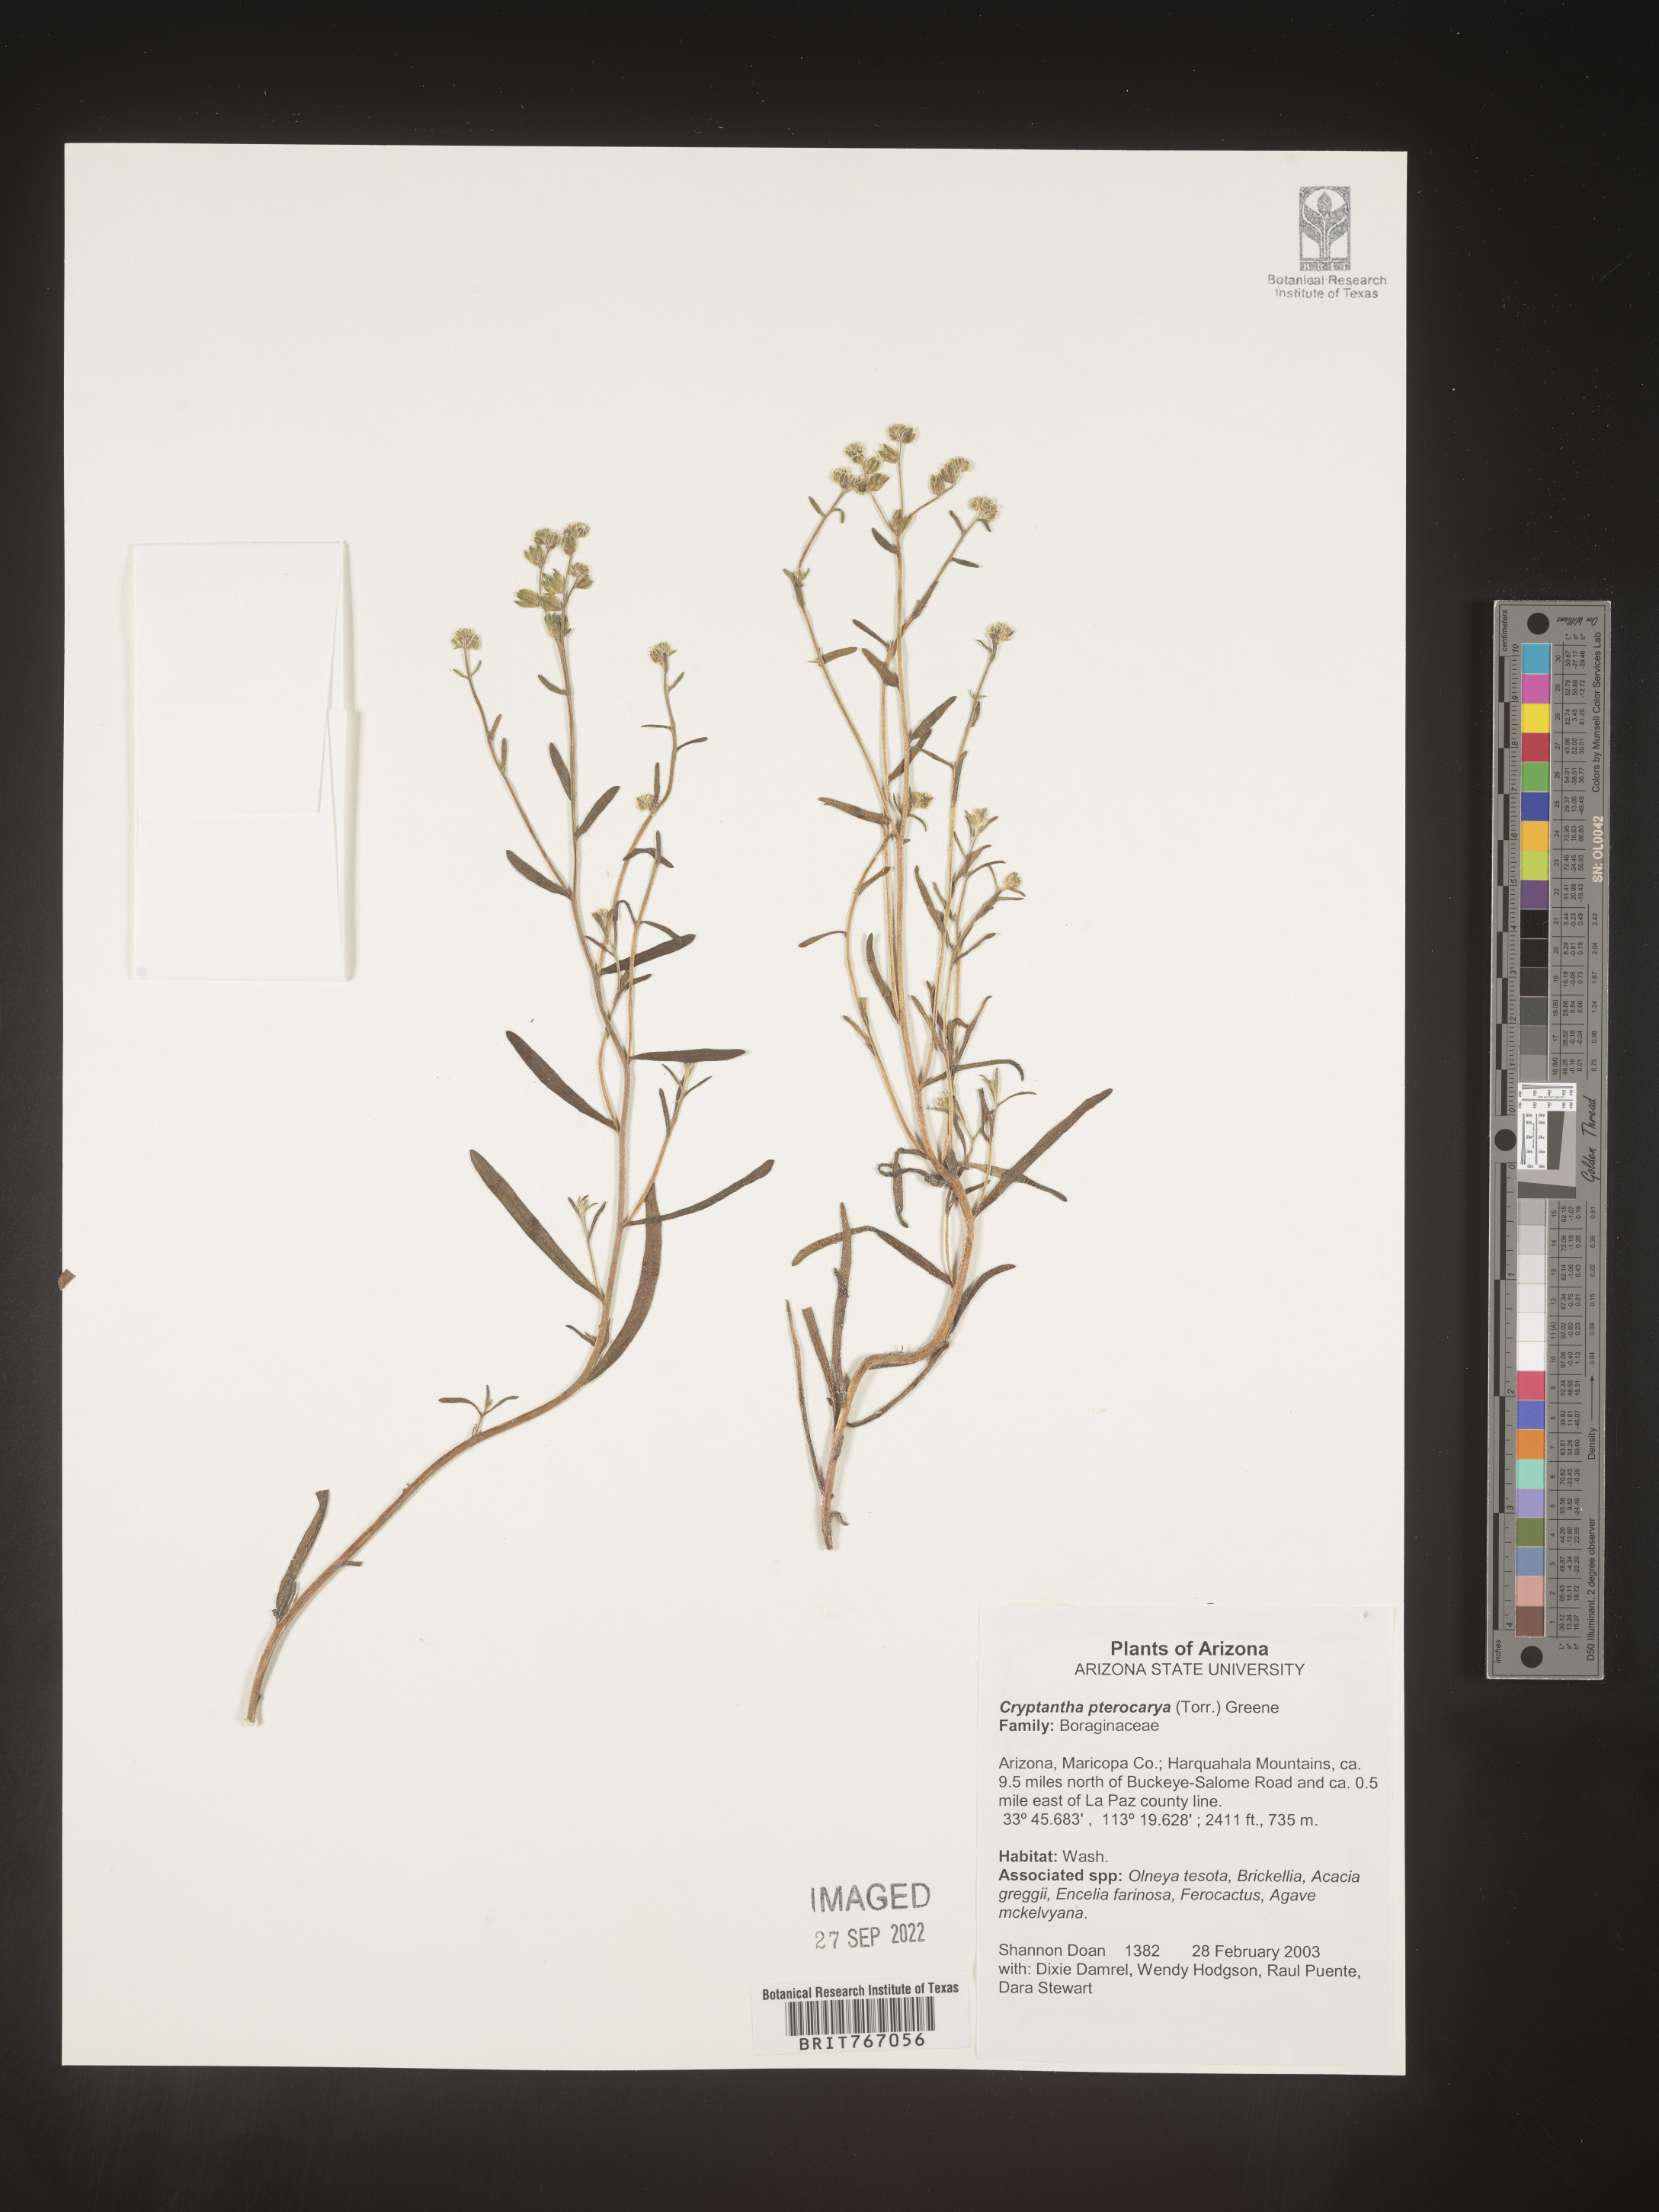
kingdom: Plantae
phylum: Tracheophyta
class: Magnoliopsida
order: Boraginales
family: Boraginaceae
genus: Cryptantha
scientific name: Cryptantha pterocarya
